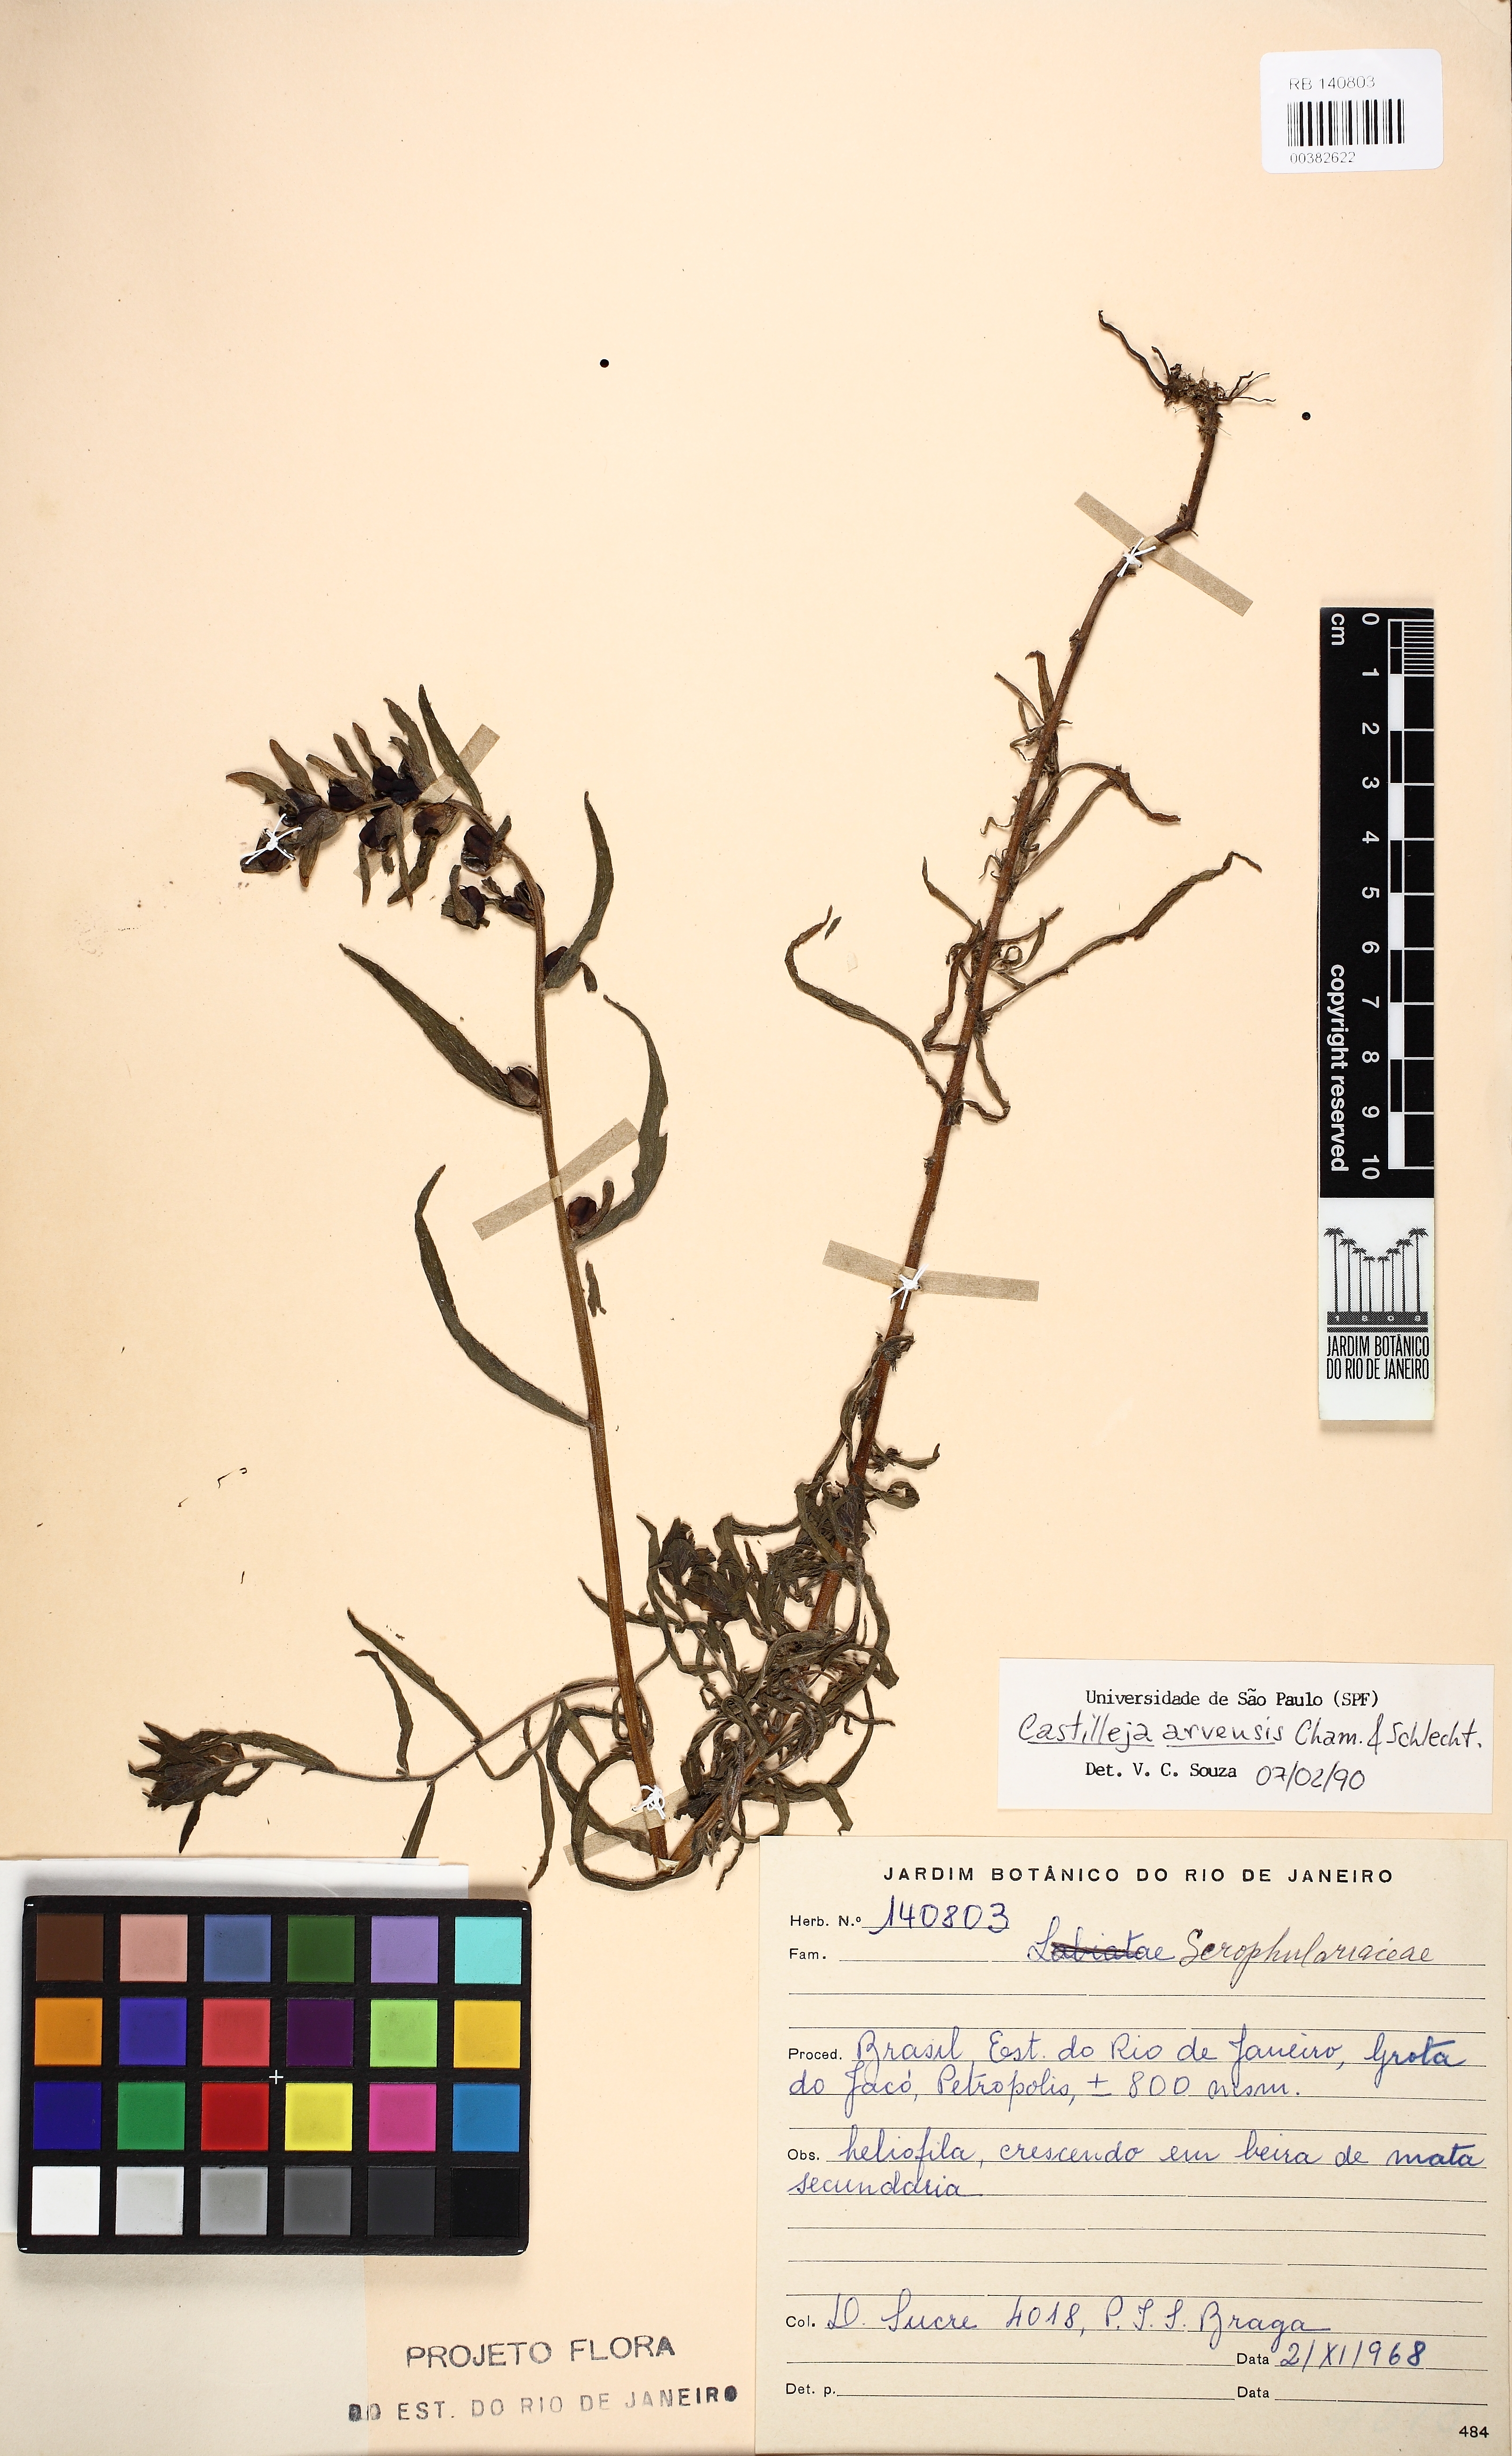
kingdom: Plantae
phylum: Tracheophyta
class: Magnoliopsida
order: Lamiales
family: Orobanchaceae
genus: Castilleja
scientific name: Castilleja arvensis
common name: Indian paintbrush
